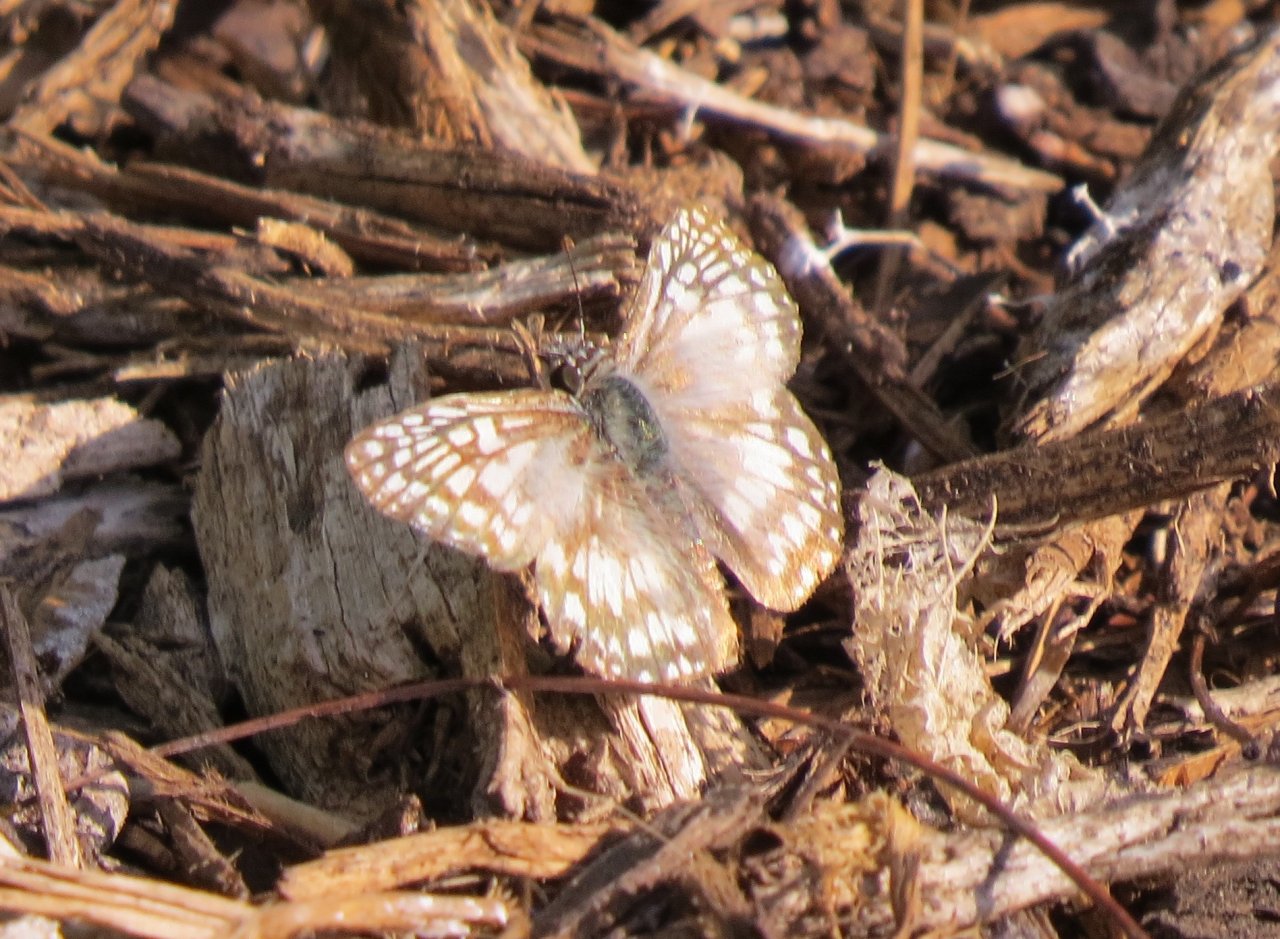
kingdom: Animalia
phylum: Arthropoda
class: Insecta
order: Lepidoptera
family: Hesperiidae
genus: Pyrgus
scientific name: Pyrgus oileus
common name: Tropical Checkered-Skipper
